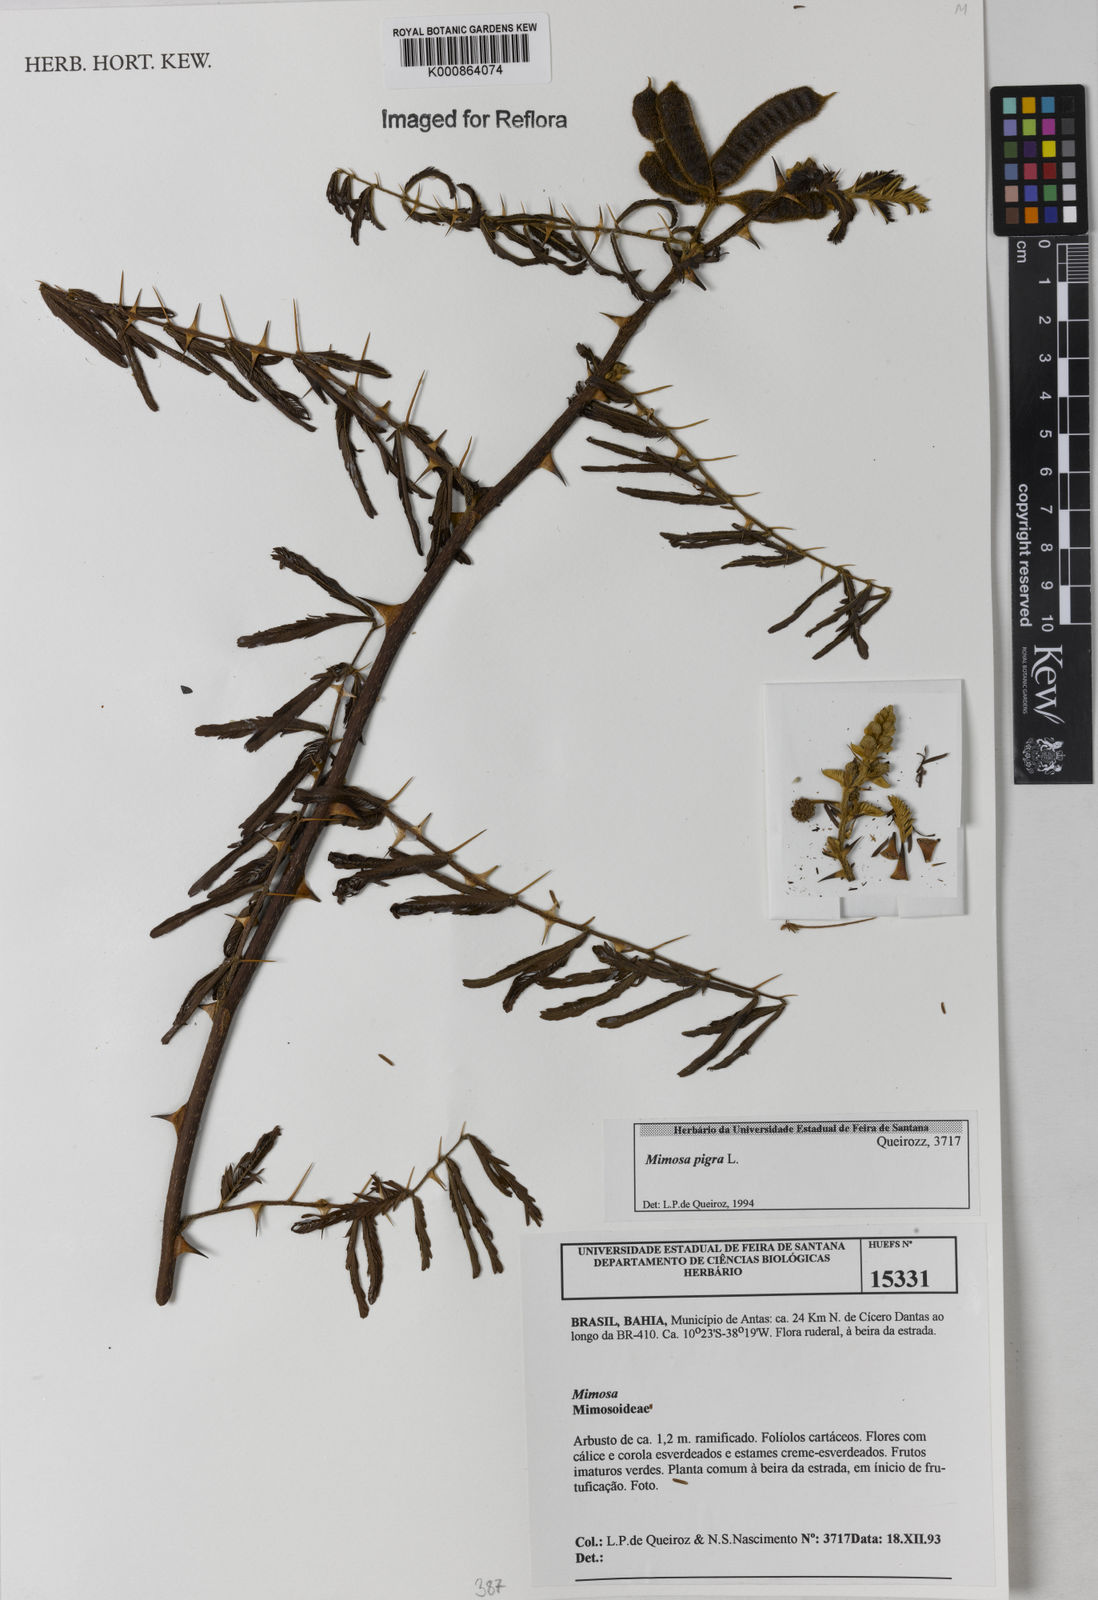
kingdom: Plantae
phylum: Tracheophyta
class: Magnoliopsida
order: Fabales
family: Fabaceae
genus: Mimosa
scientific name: Mimosa pigra
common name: Black mimosa
